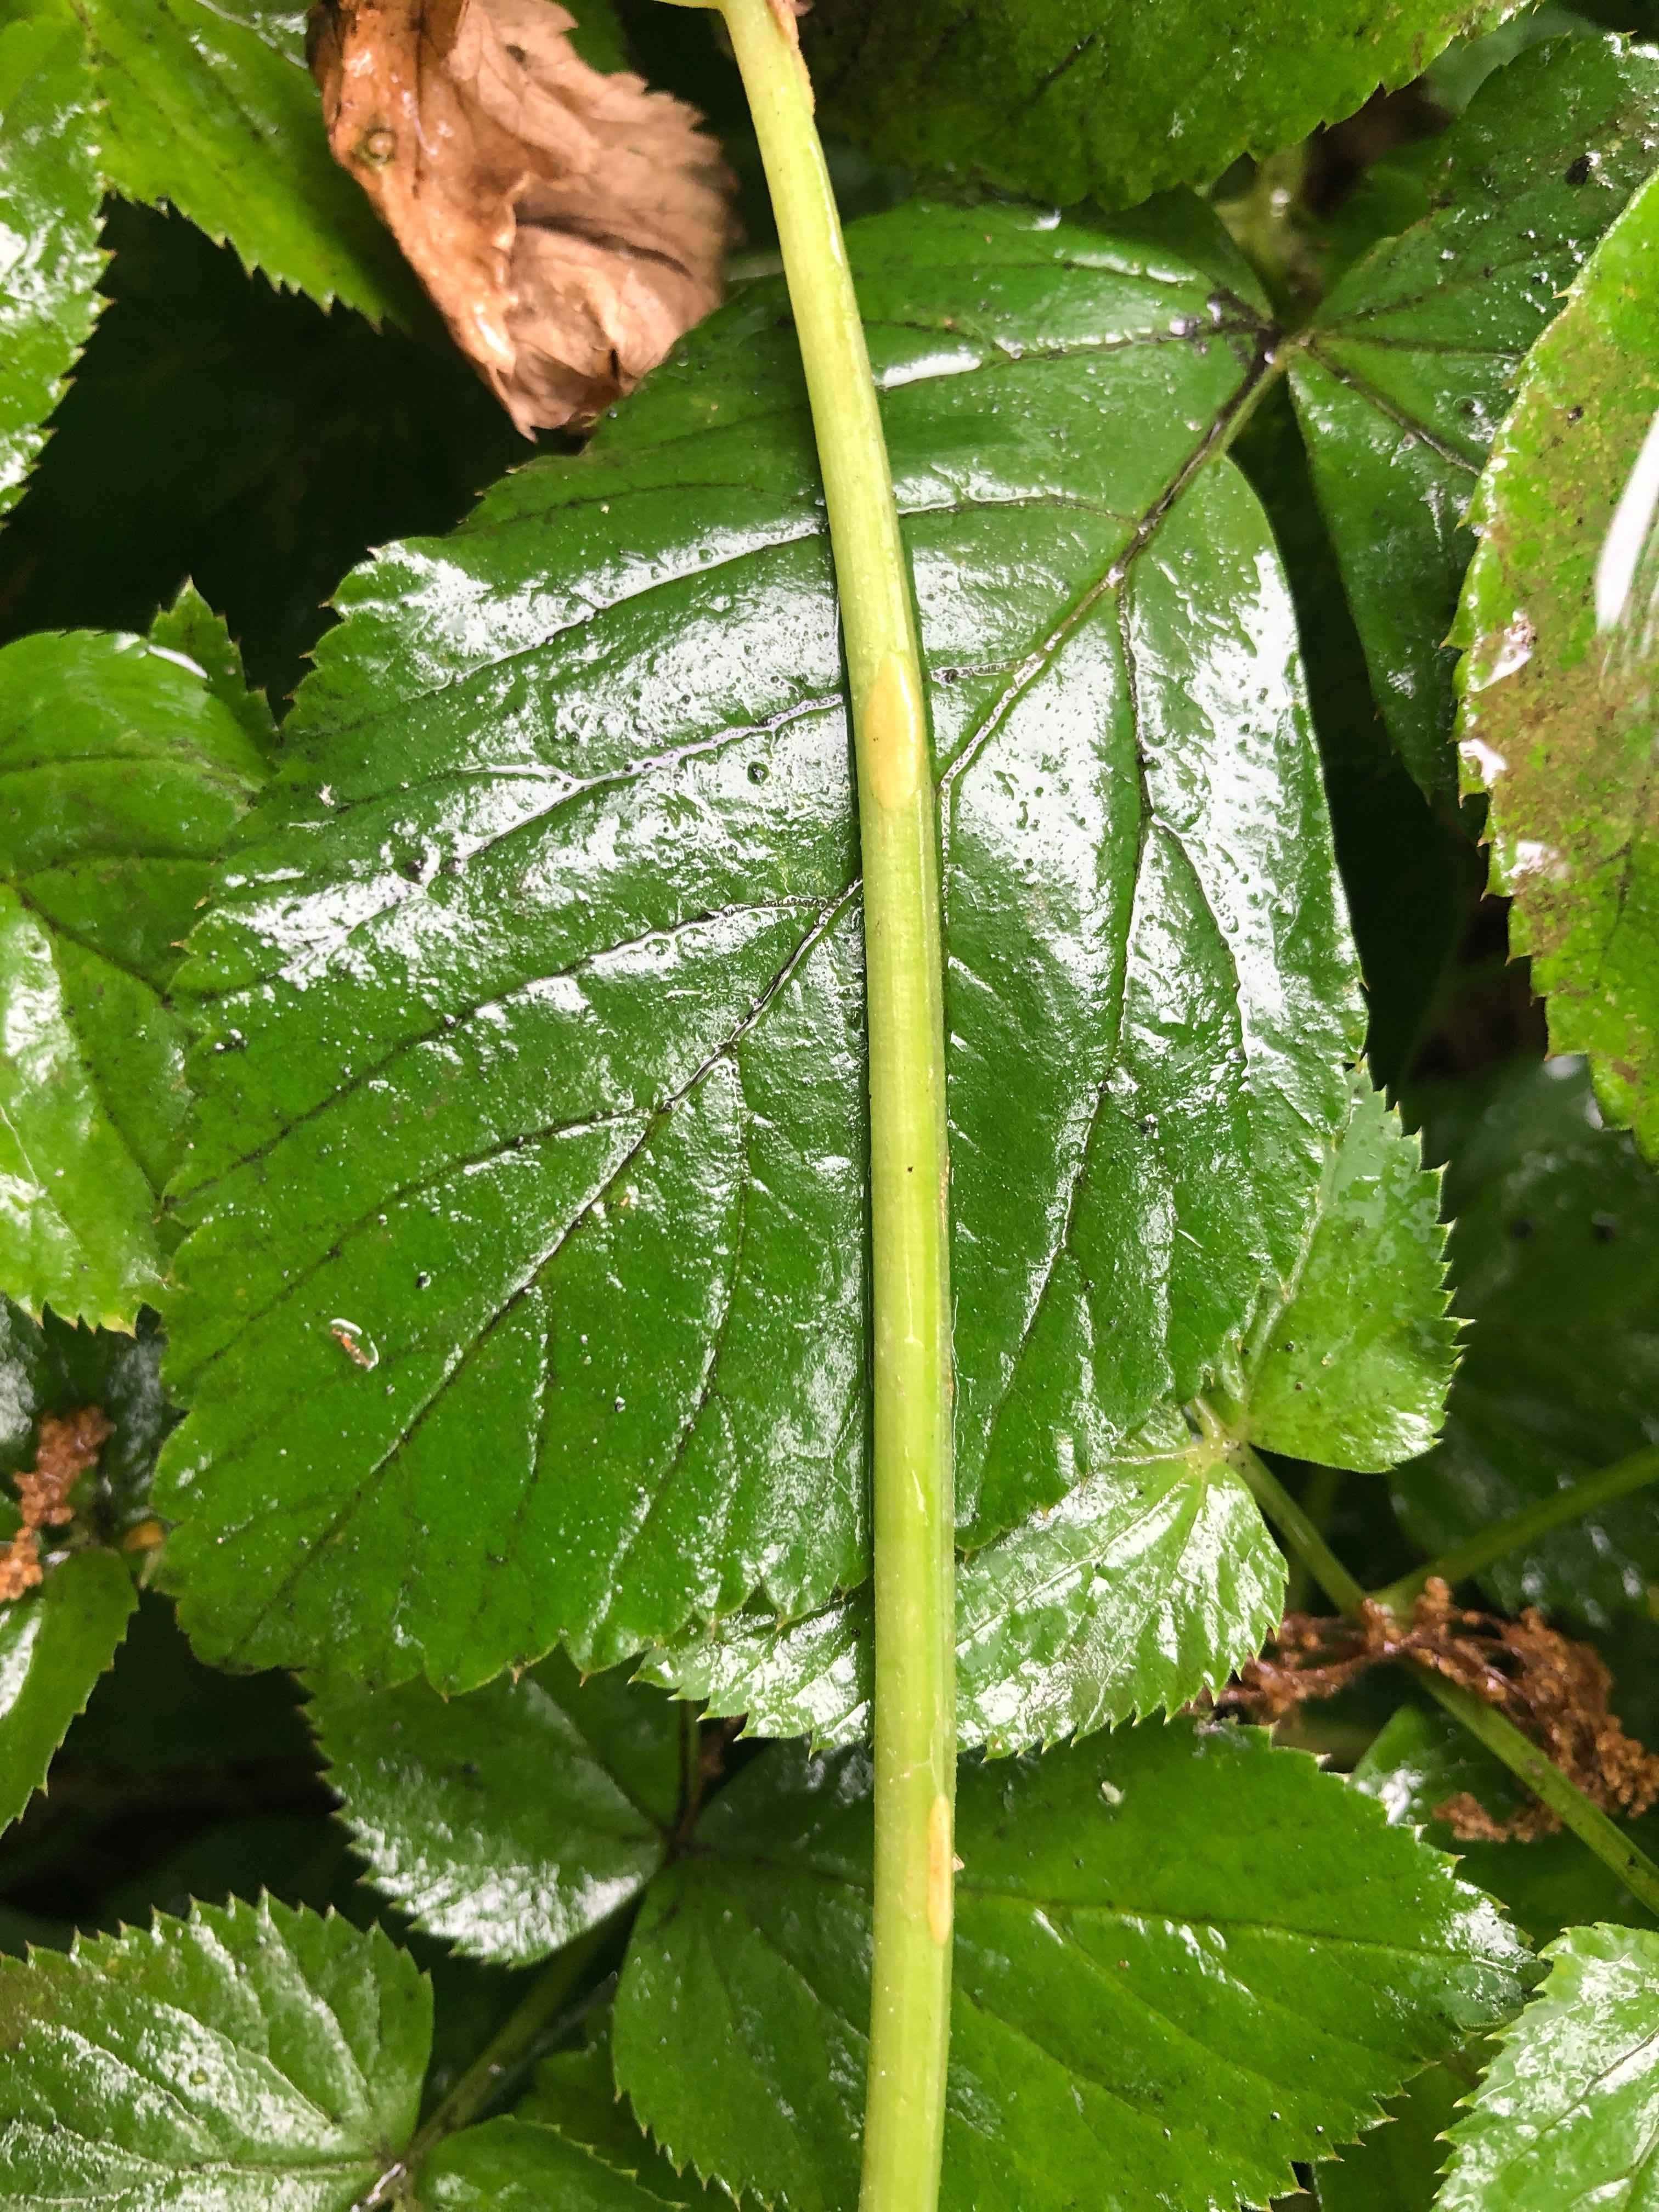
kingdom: Fungi
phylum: Ascomycota
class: Taphrinomycetes
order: Taphrinales
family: Taphrinaceae
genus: Protomyces
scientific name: Protomyces macrosporus
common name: skvalderkål-vablesæk
